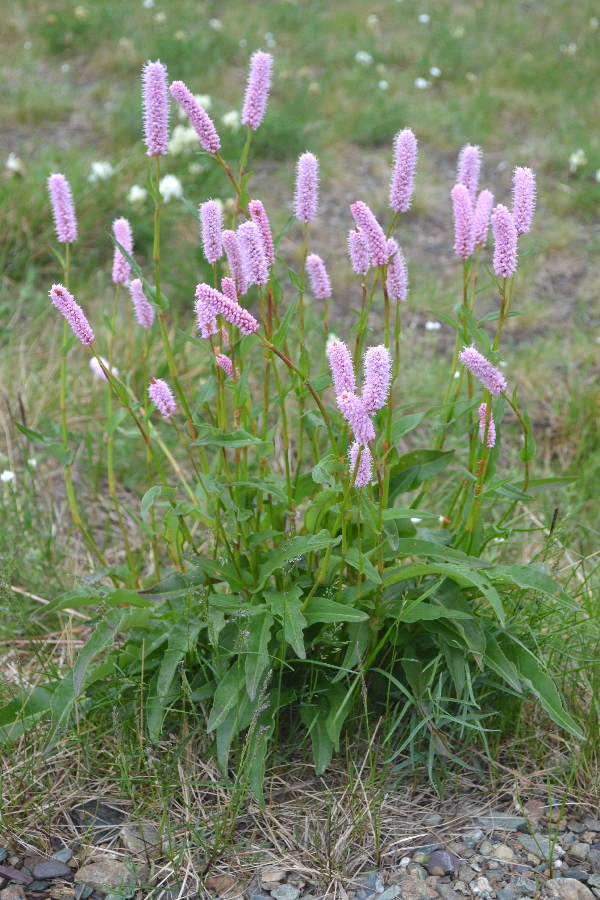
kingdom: Plantae
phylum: Tracheophyta
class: Magnoliopsida
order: Caryophyllales
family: Polygonaceae
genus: Bistorta
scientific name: Bistorta officinalis
